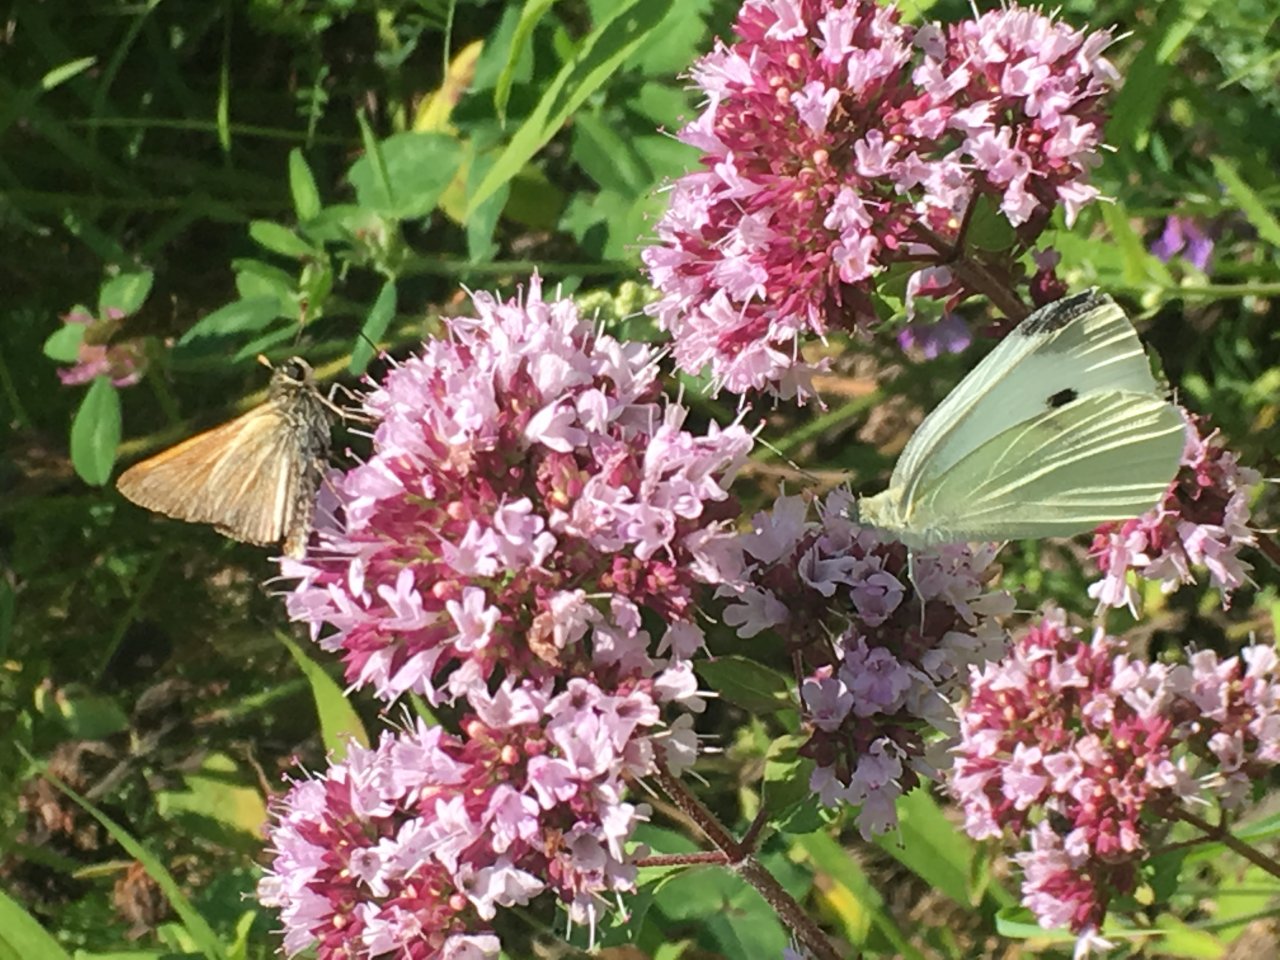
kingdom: Animalia
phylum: Arthropoda
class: Insecta
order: Lepidoptera
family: Pieridae
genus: Pieris
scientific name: Pieris rapae
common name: Cabbage White
